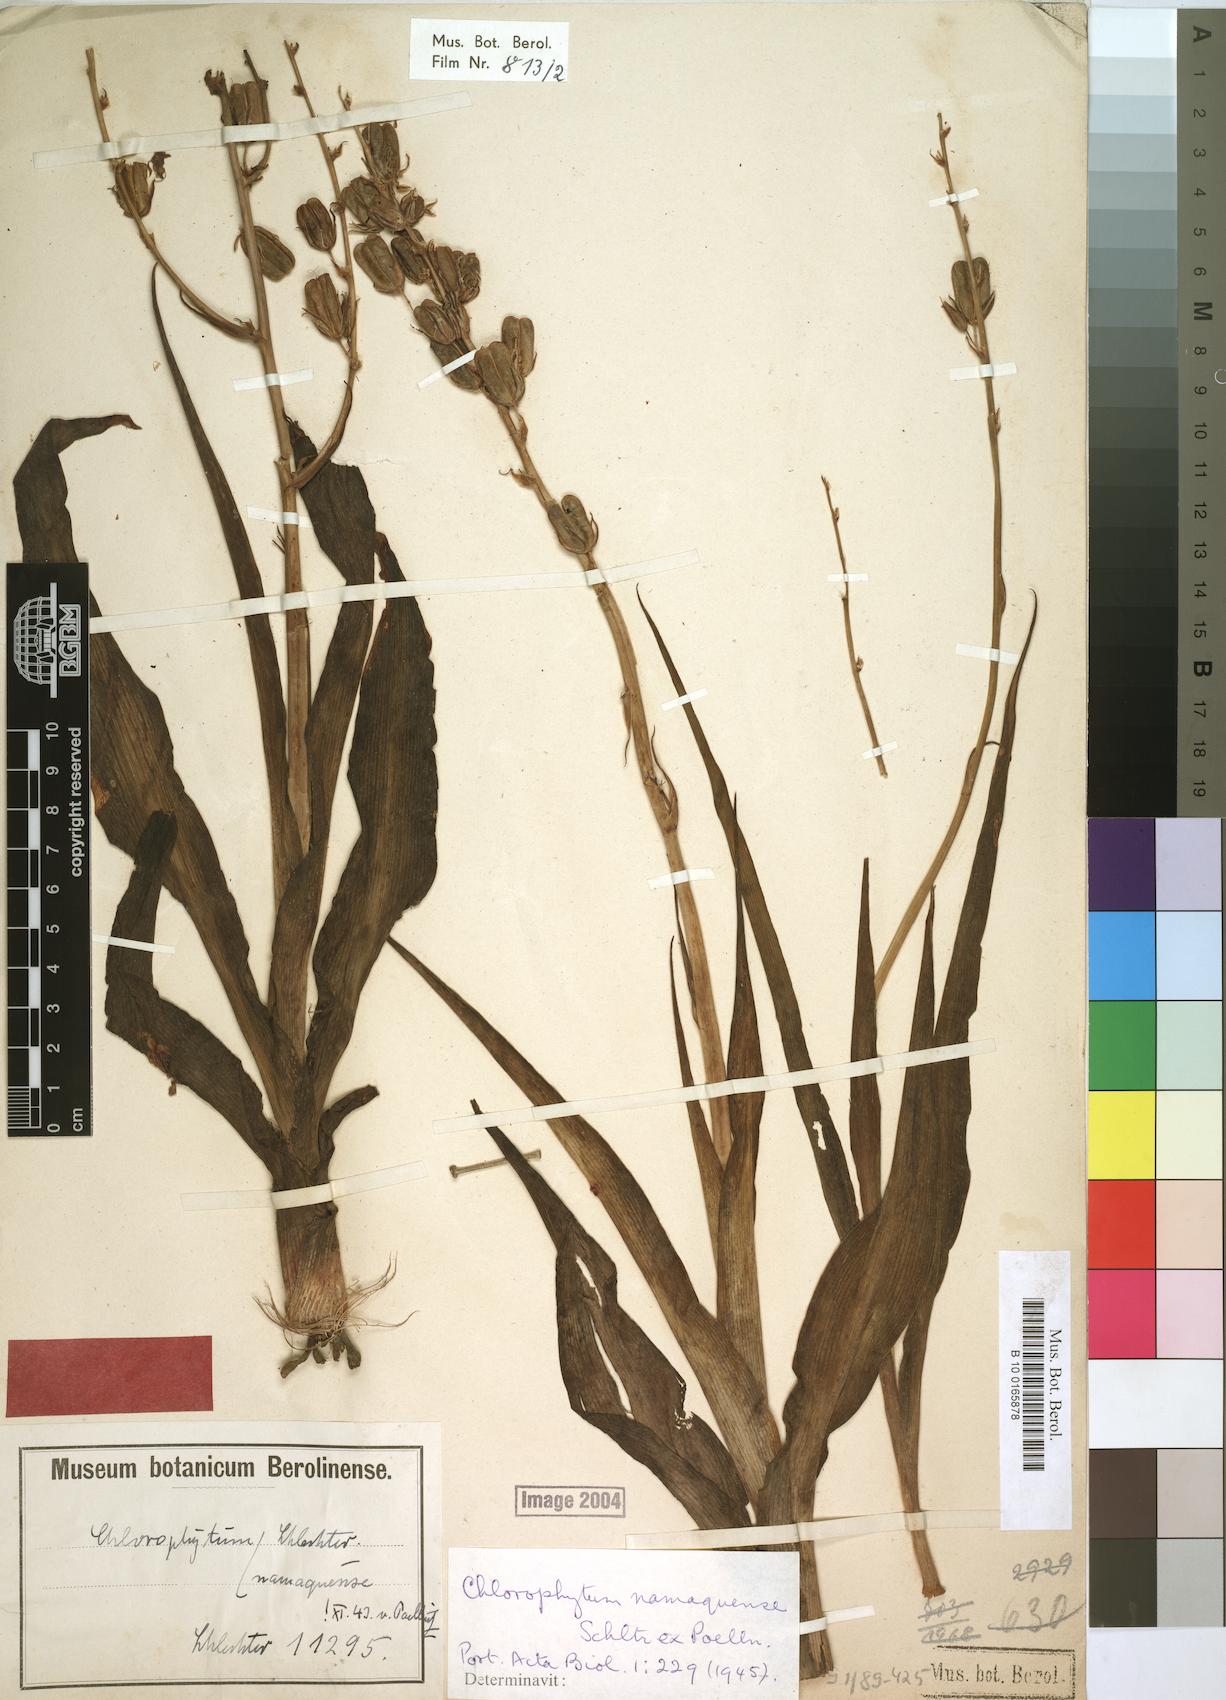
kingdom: Plantae
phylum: Tracheophyta
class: Liliopsida
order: Asparagales
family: Asparagaceae
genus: Chlorophytum
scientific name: Chlorophytum namaquense
